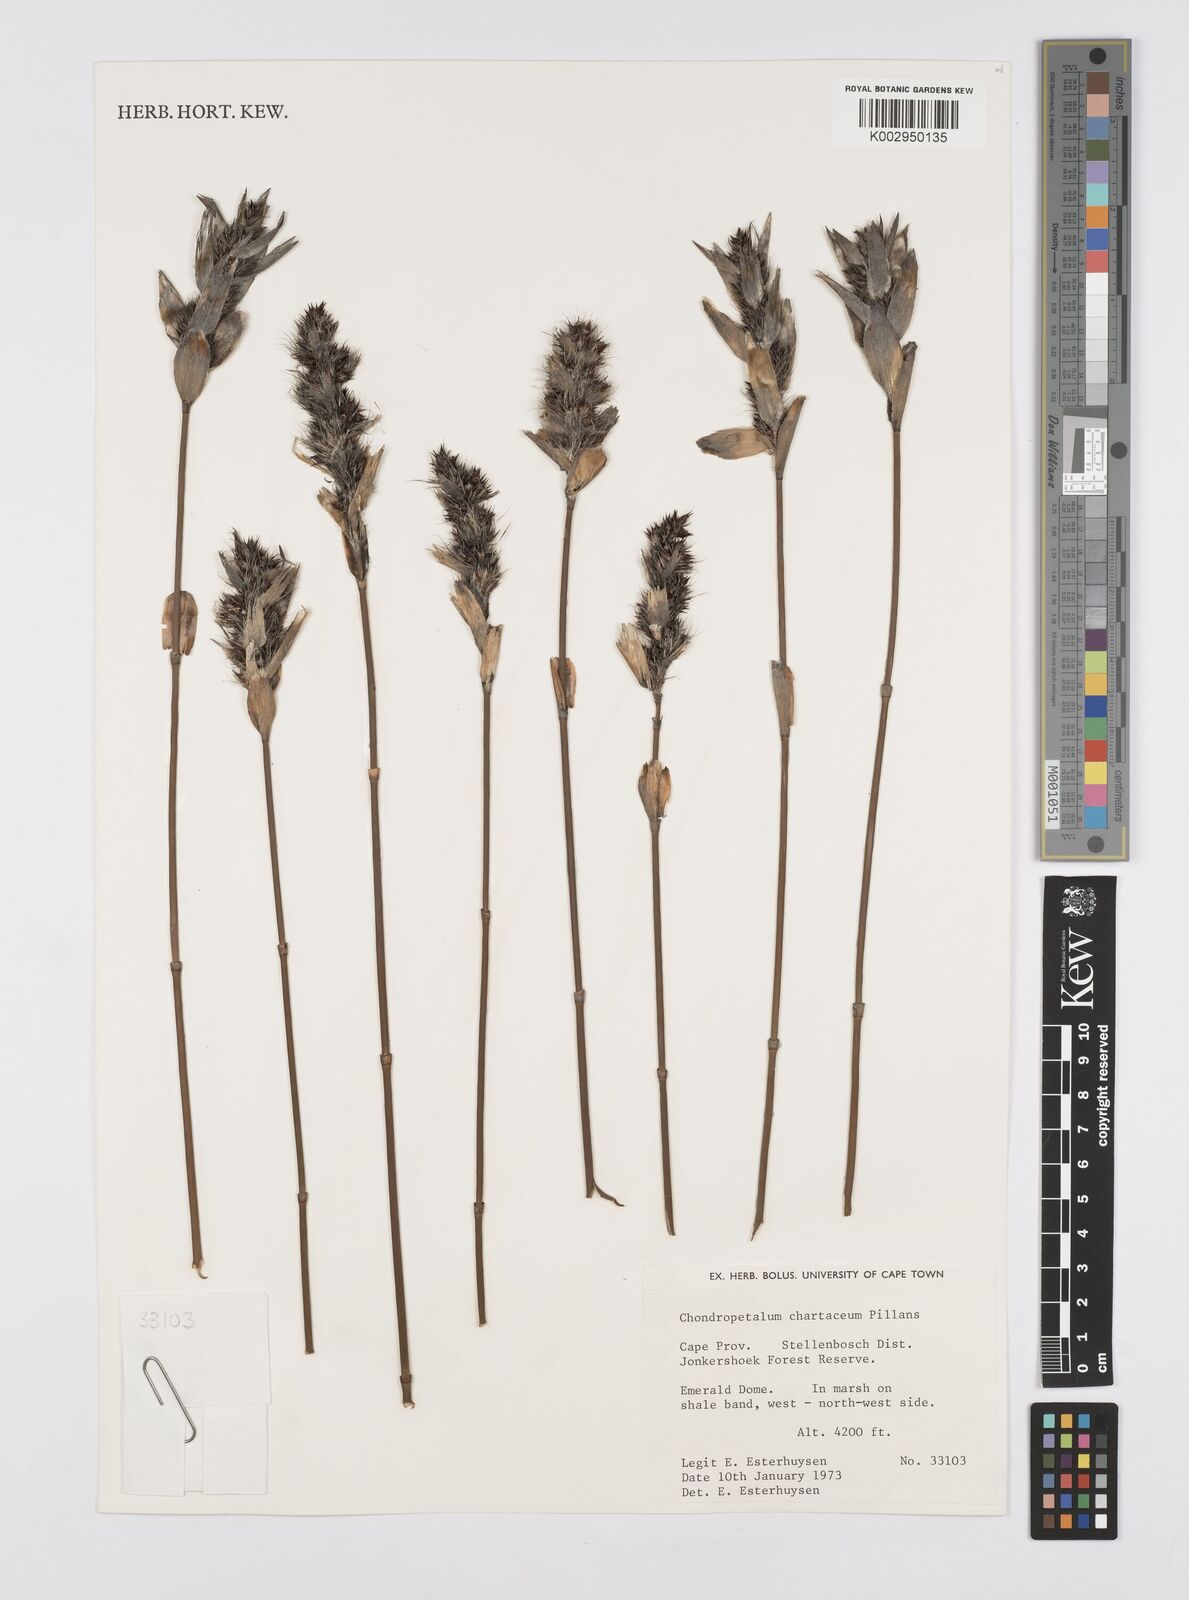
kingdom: Plantae
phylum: Tracheophyta
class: Liliopsida
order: Poales
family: Restionaceae
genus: Askidiosperma
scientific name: Askidiosperma chartaceum
